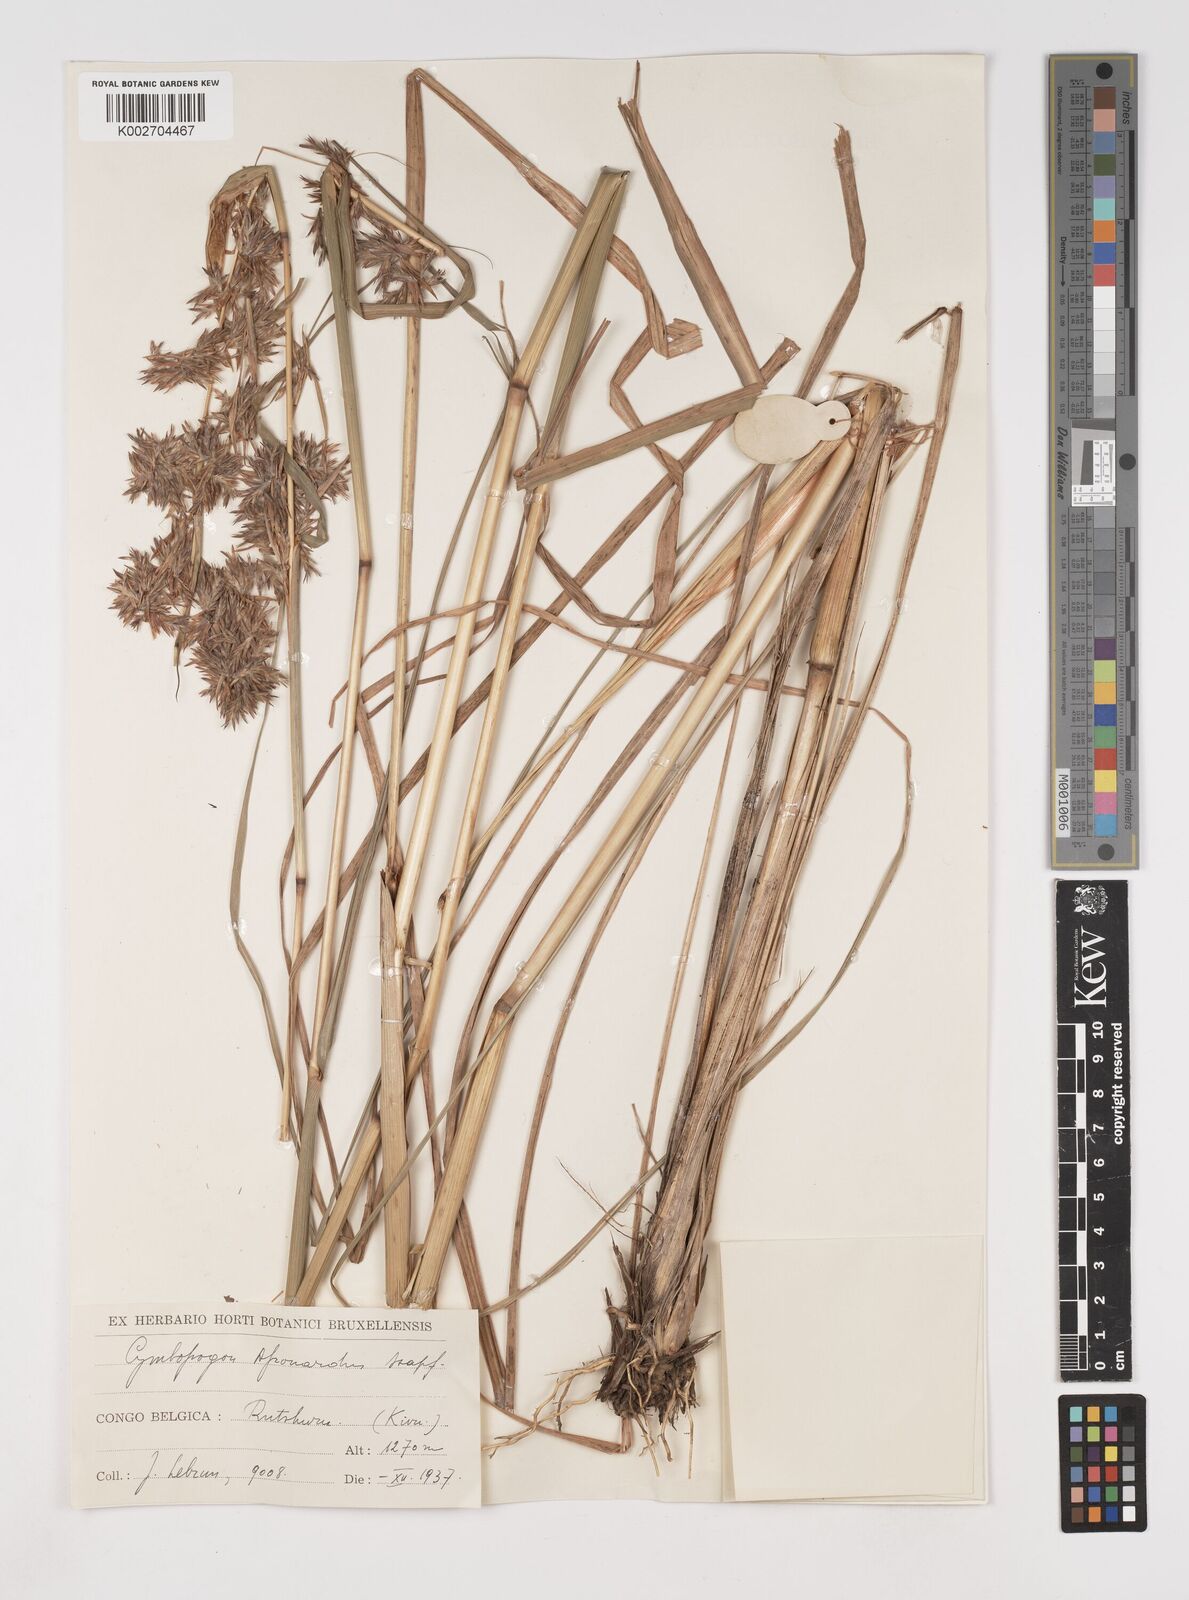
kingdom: Plantae
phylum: Tracheophyta
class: Liliopsida
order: Poales
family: Poaceae
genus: Cymbopogon
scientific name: Cymbopogon nardus
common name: Giant turpentine grass
